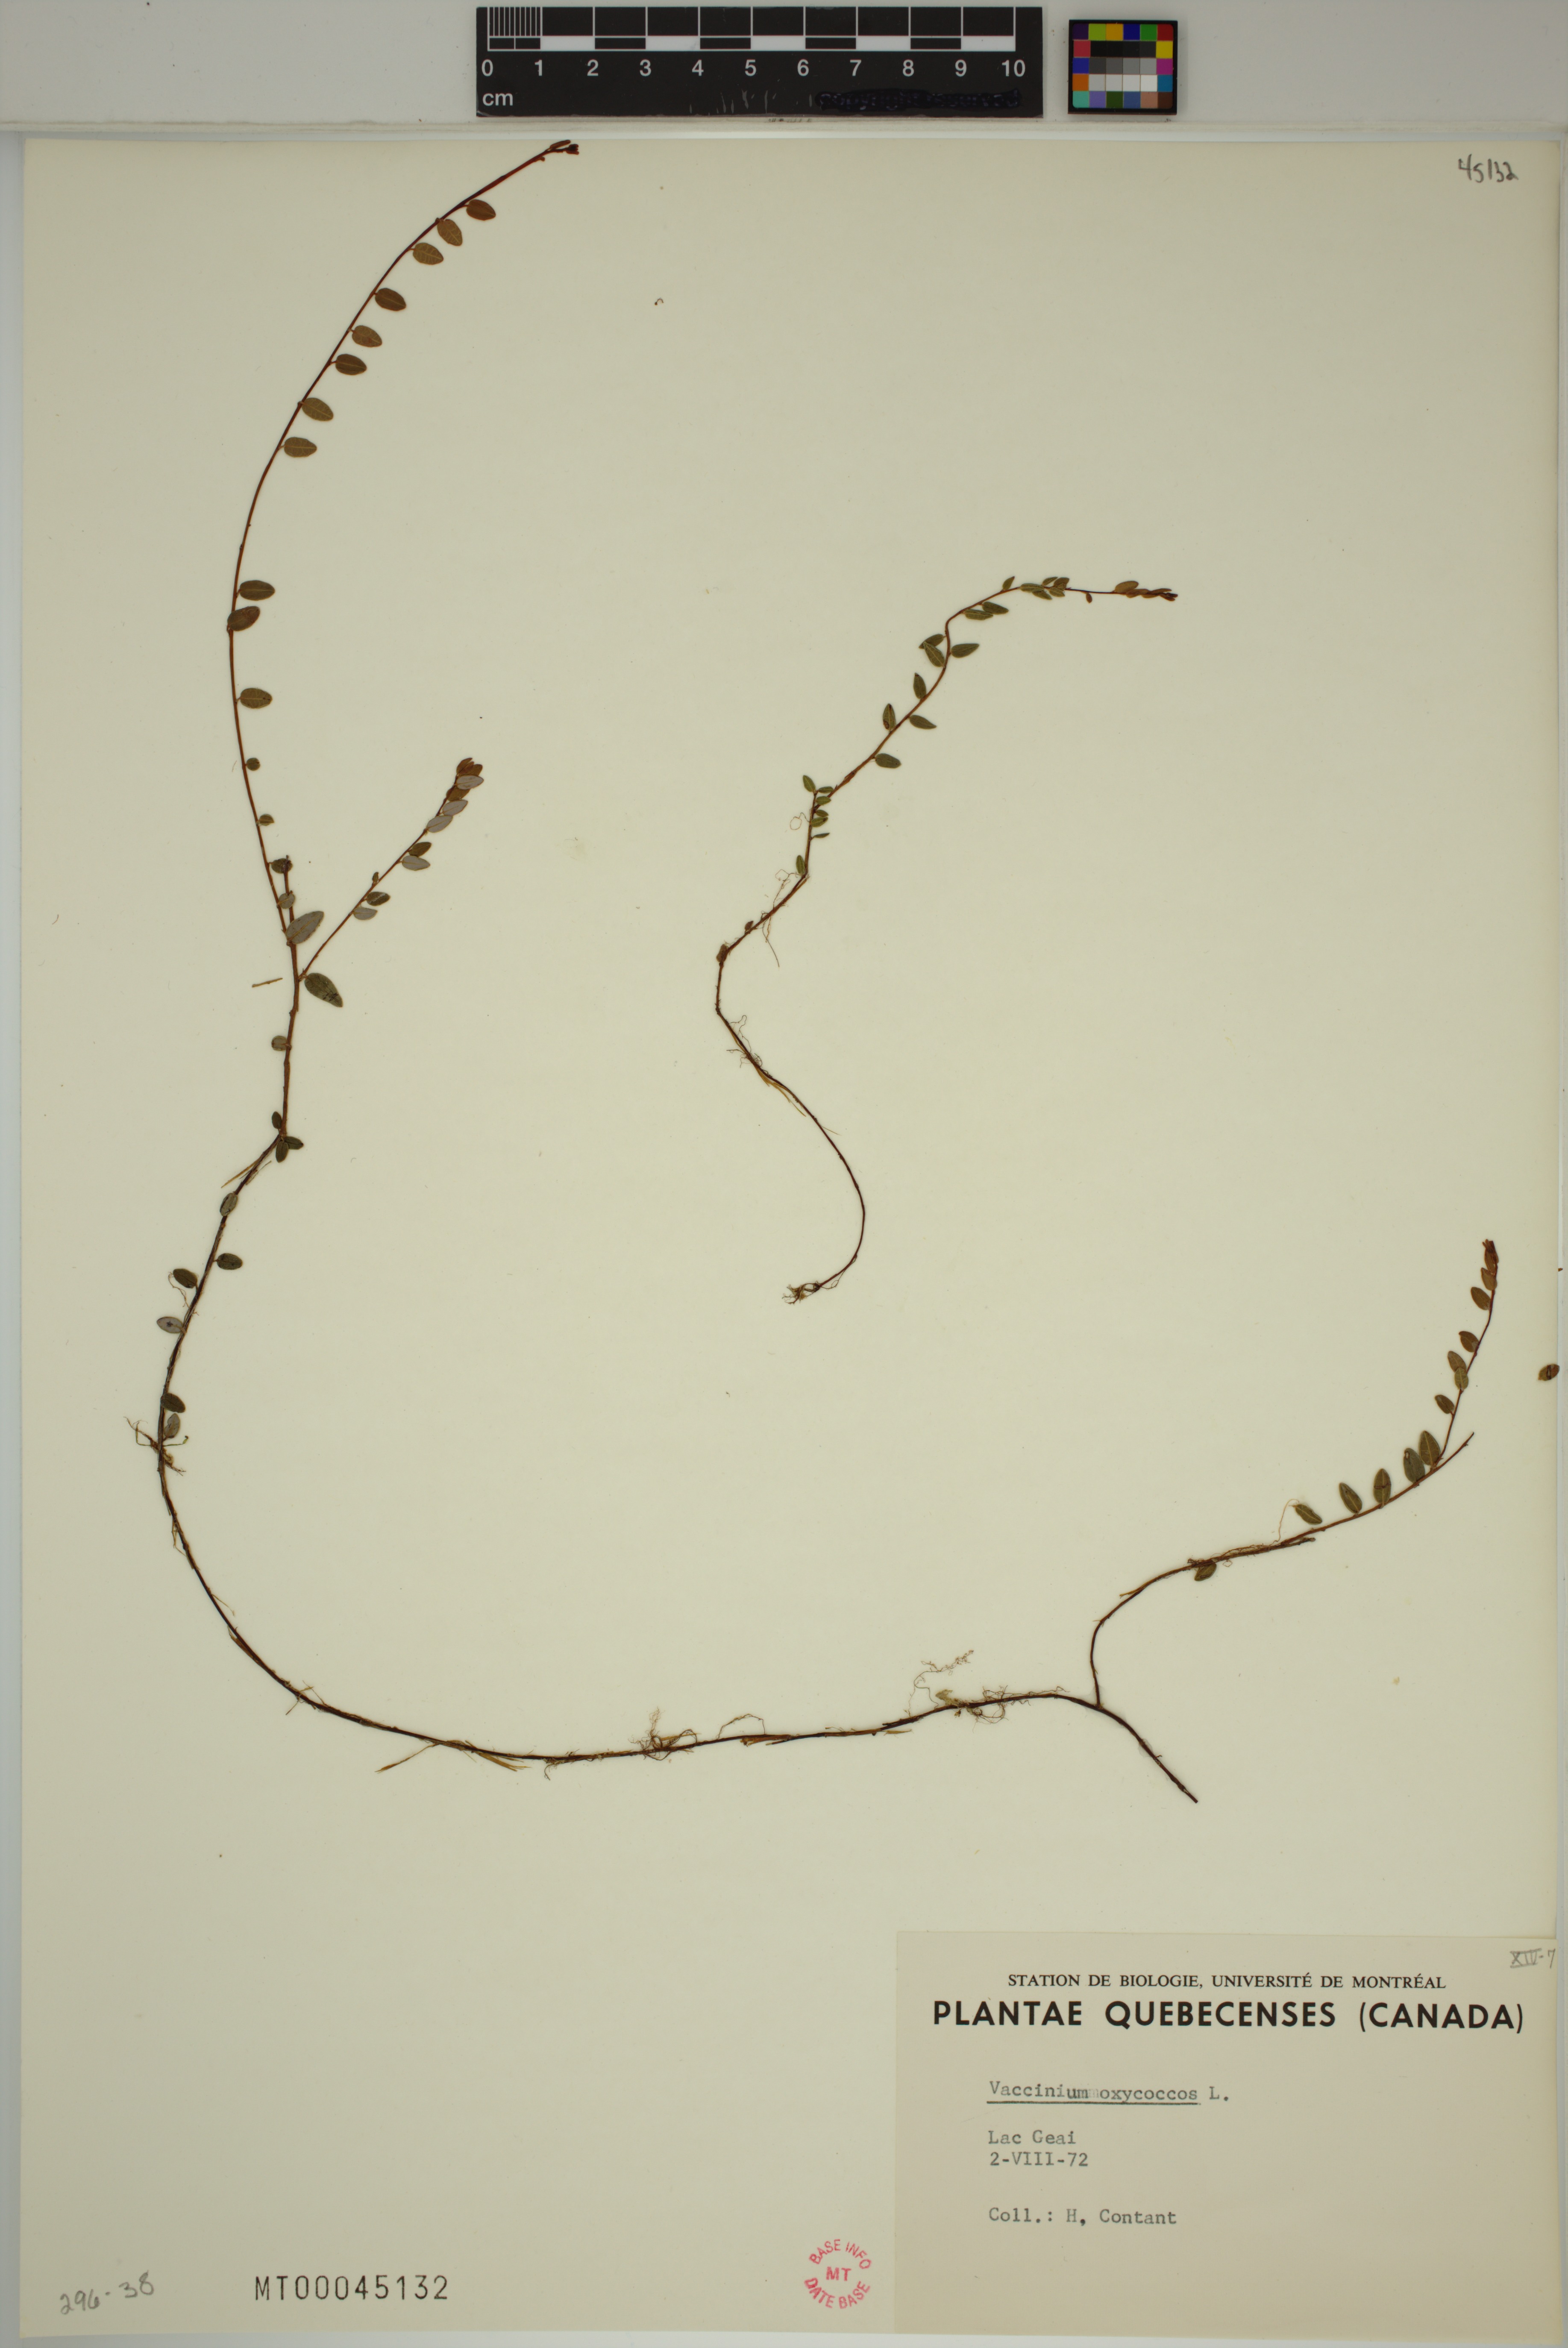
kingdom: Plantae
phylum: Tracheophyta
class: Magnoliopsida
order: Ericales
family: Ericaceae
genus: Vaccinium
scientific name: Vaccinium oxycoccos
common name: Cranberry
